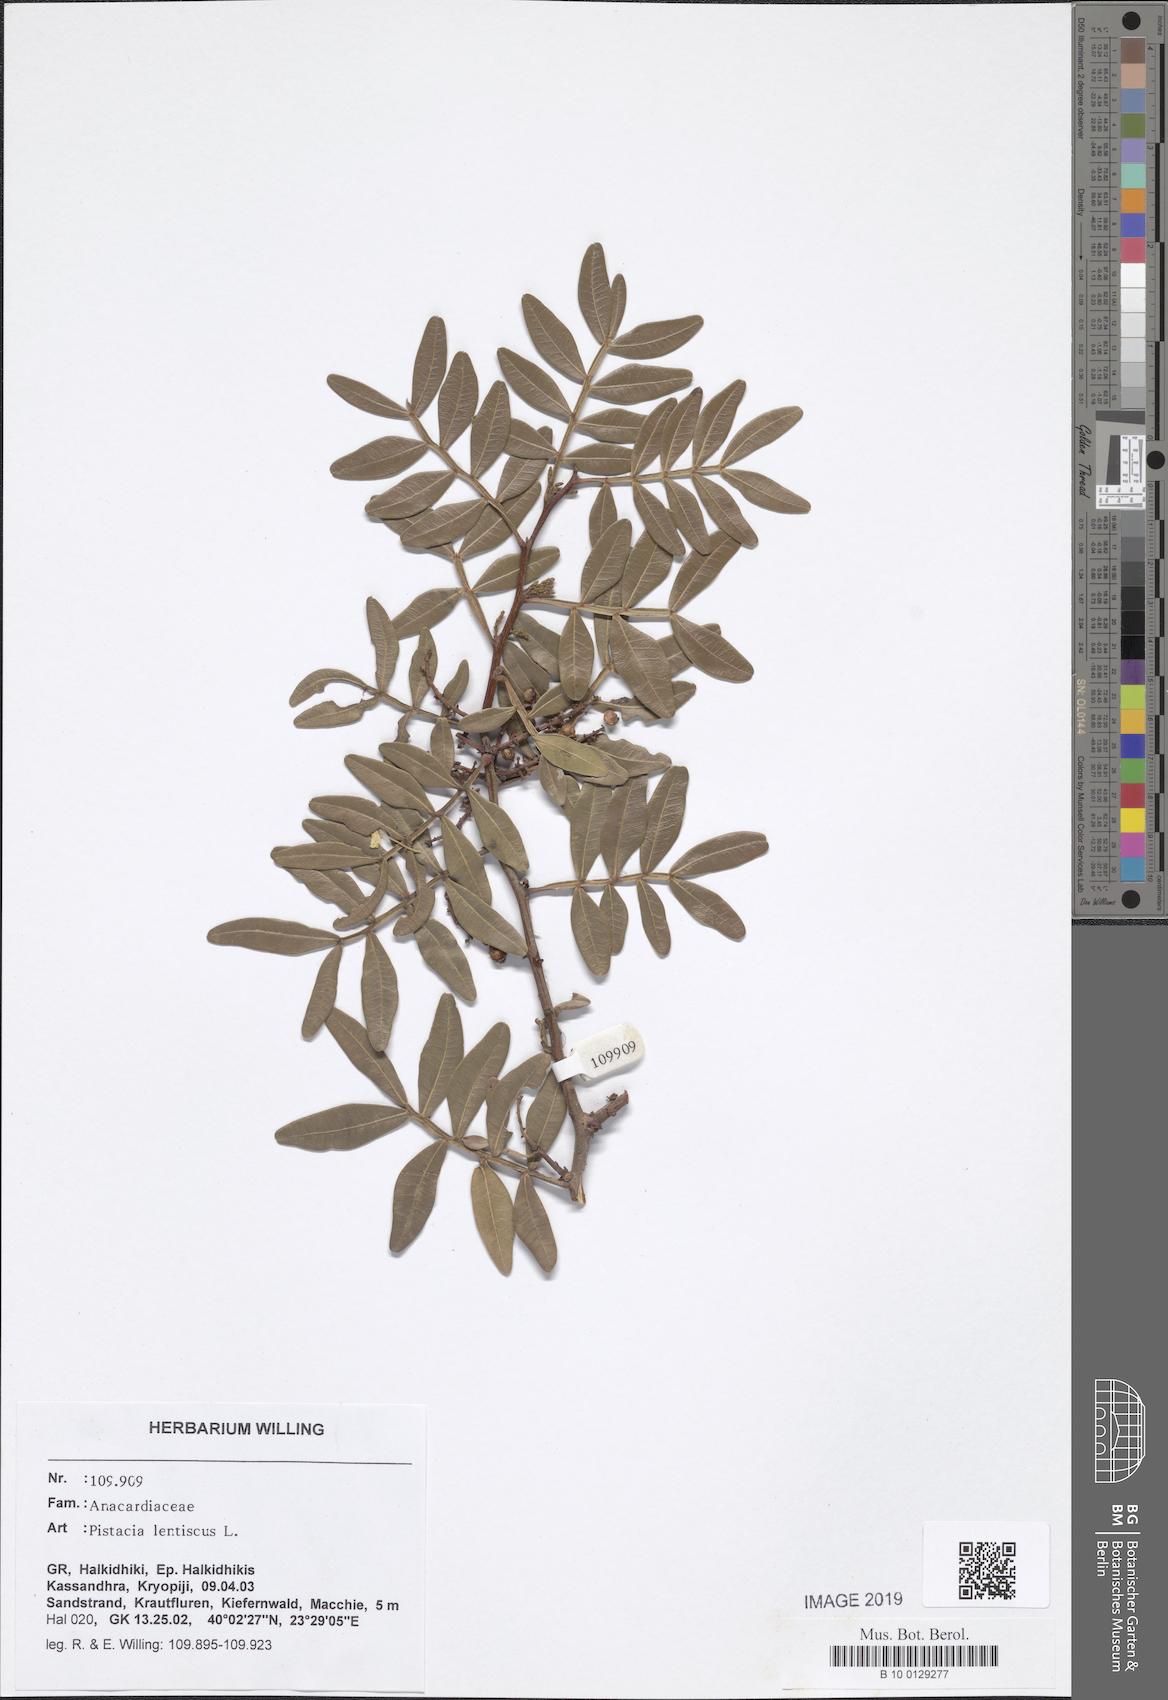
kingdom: Plantae
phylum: Tracheophyta
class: Magnoliopsida
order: Sapindales
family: Anacardiaceae
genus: Pistacia
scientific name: Pistacia lentiscus
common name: Lentisk
